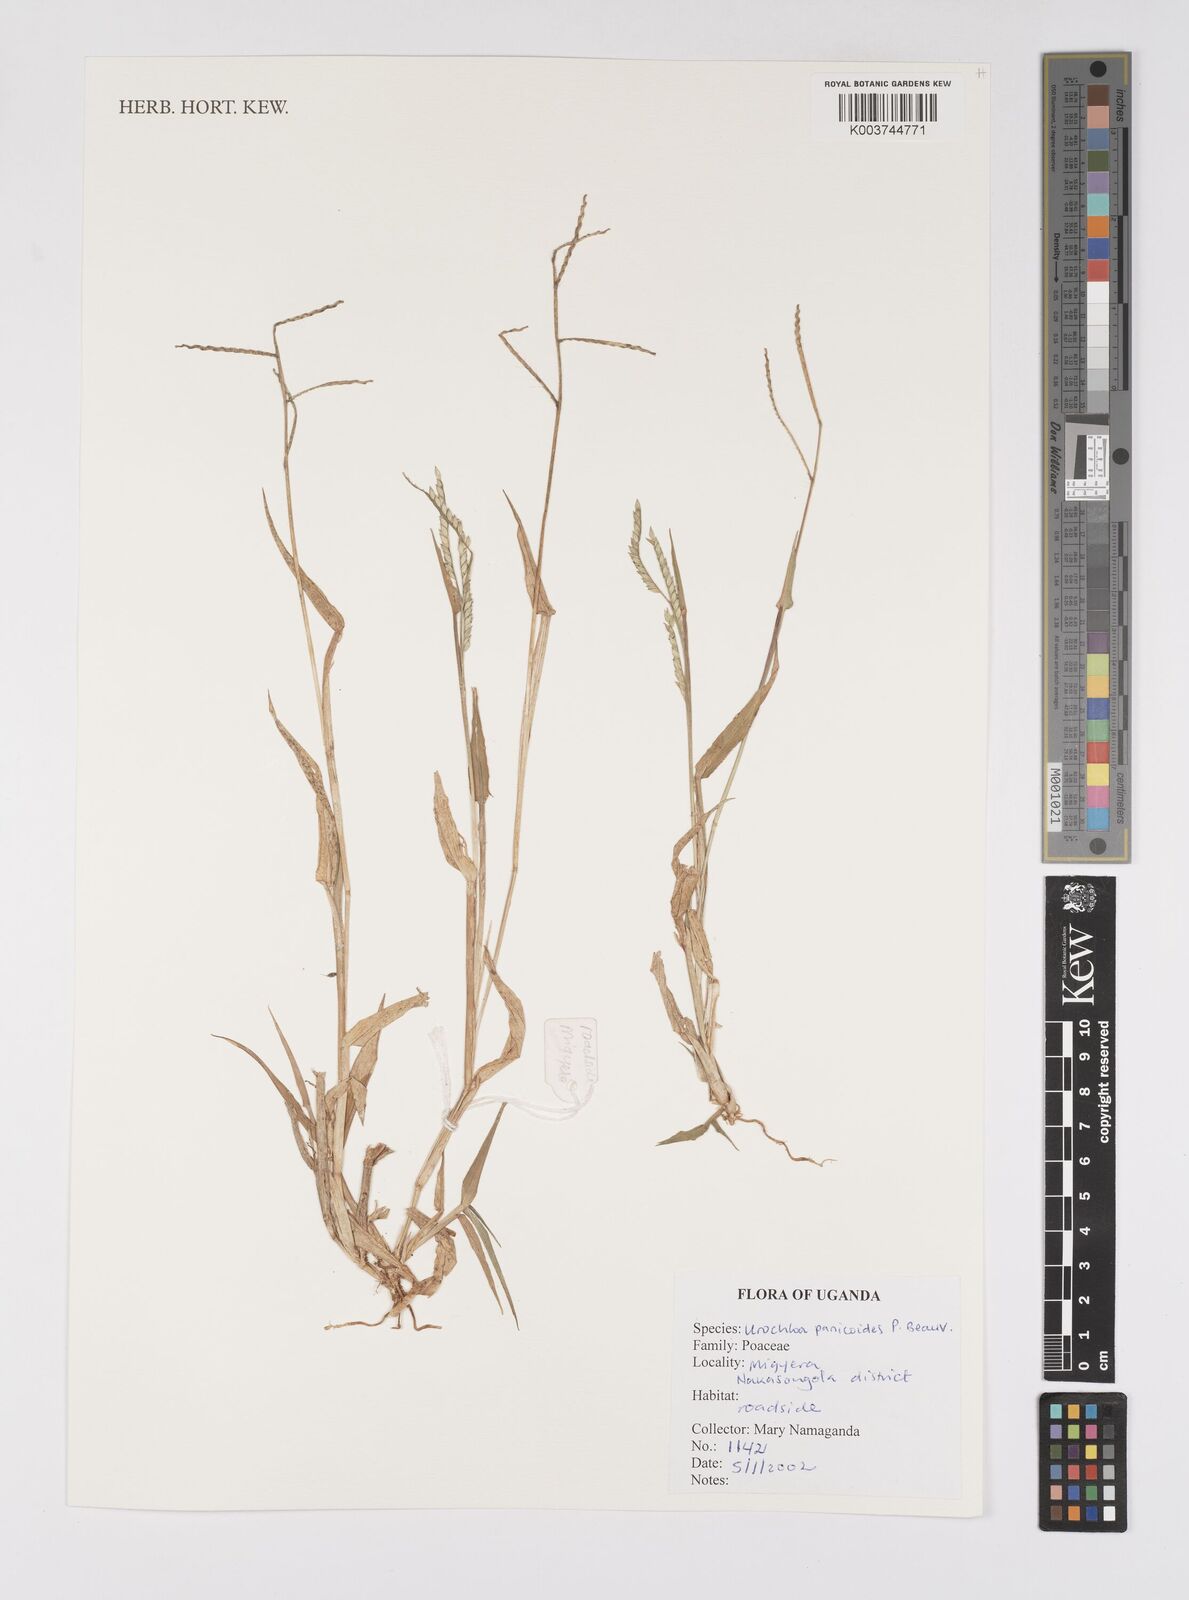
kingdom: Plantae
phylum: Tracheophyta
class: Liliopsida
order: Poales
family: Poaceae
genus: Urochloa
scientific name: Urochloa panicoides
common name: Sharp-flowered signal-grass
